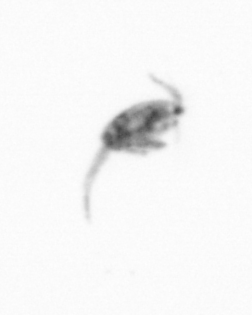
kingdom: Animalia
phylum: Arthropoda
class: Copepoda
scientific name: Copepoda
